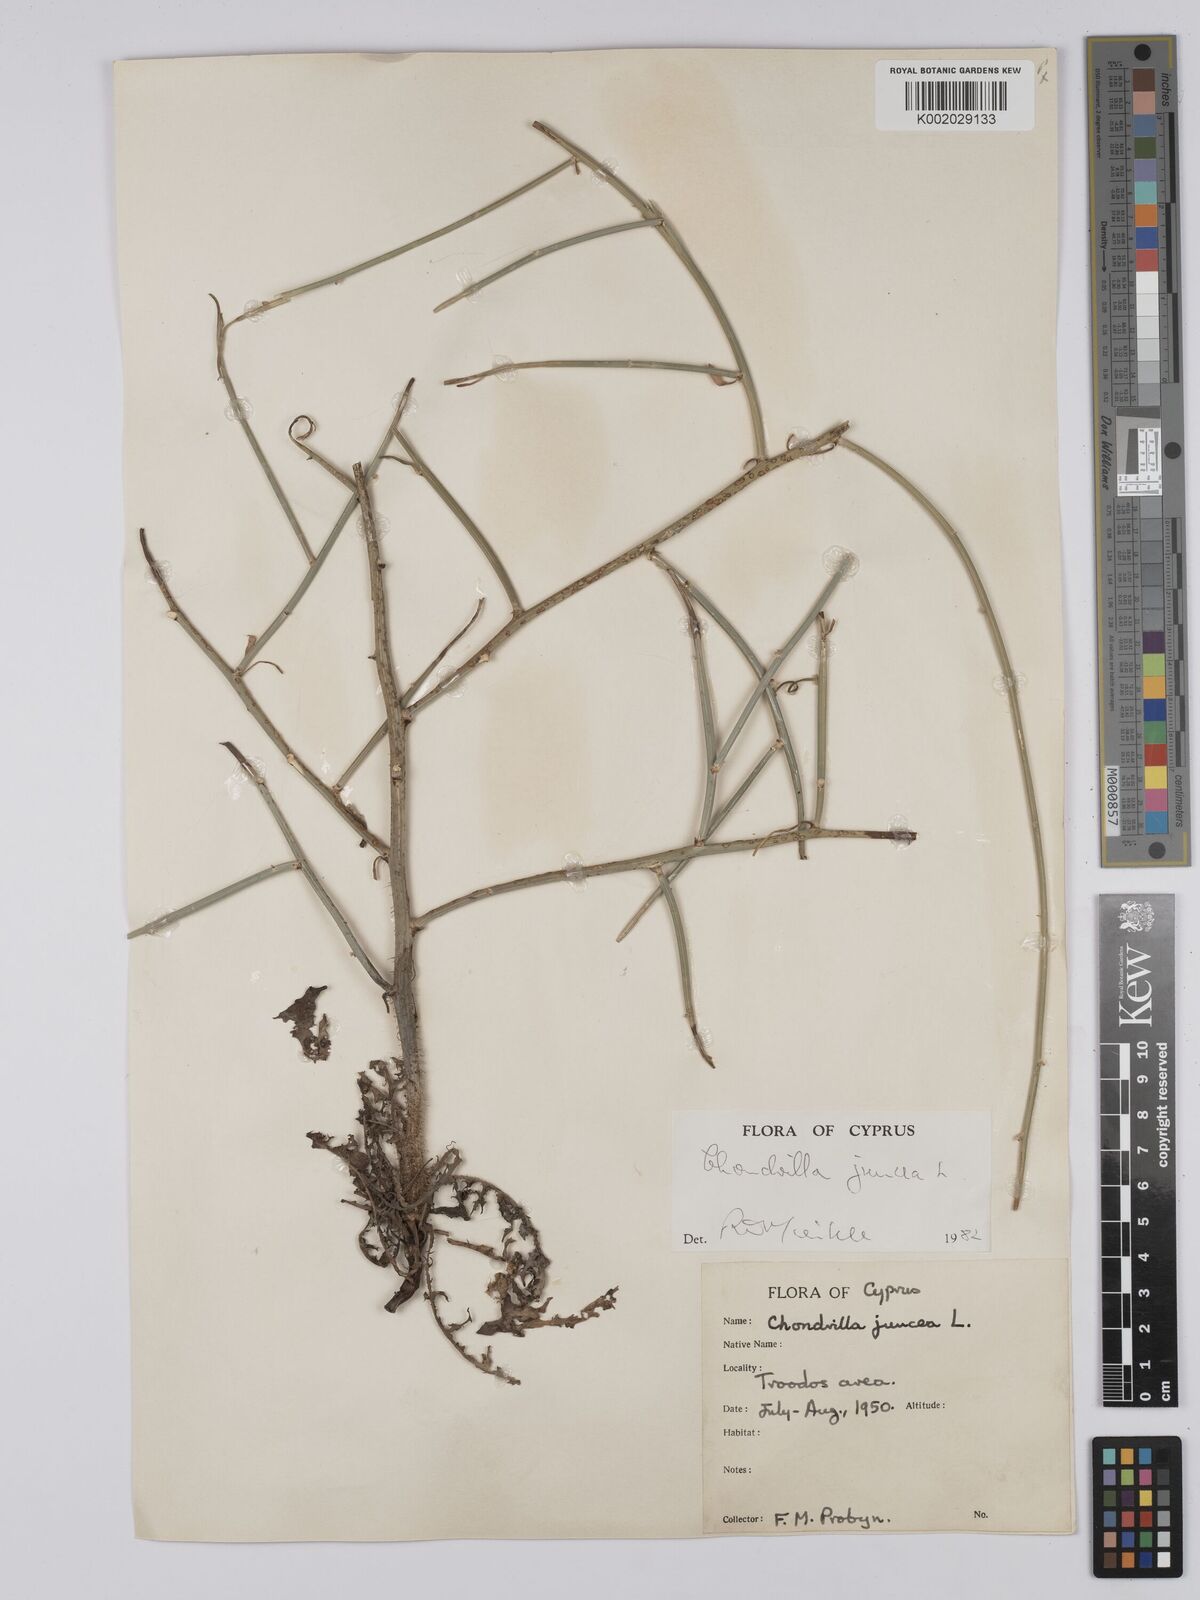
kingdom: Plantae
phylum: Tracheophyta
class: Magnoliopsida
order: Asterales
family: Asteraceae
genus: Chondrilla
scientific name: Chondrilla juncea
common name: Skeleton weed
